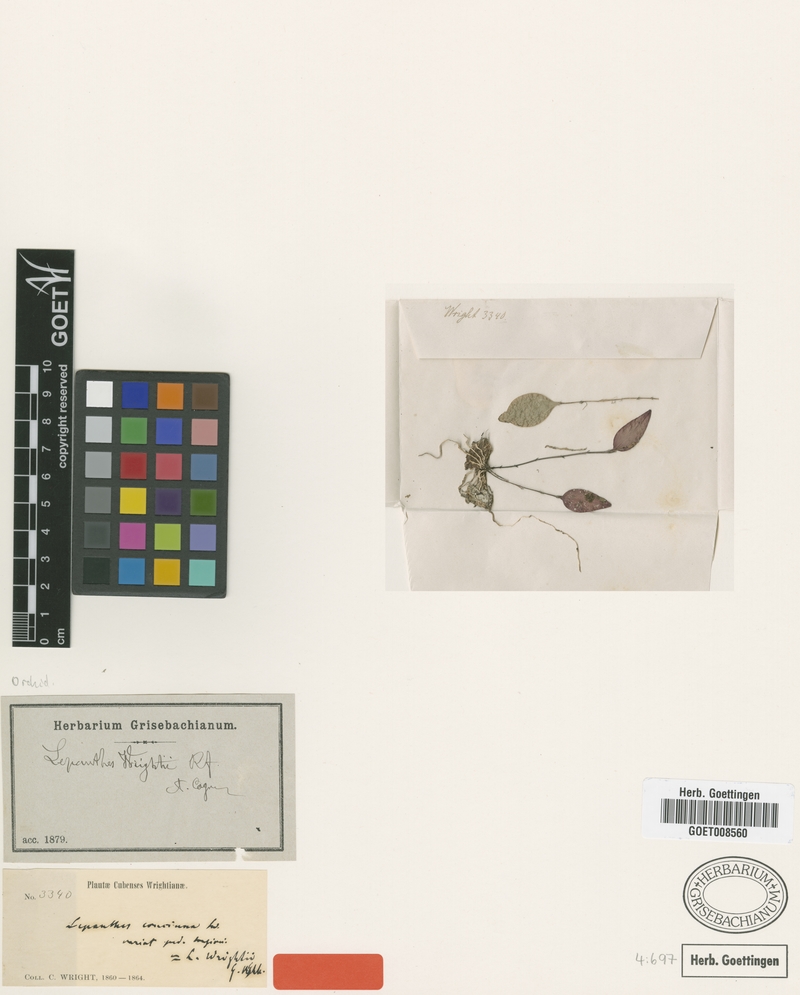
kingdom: Plantae
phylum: Tracheophyta
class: Liliopsida
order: Asparagales
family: Orchidaceae
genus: Lepanthes
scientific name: Lepanthes wrightii
